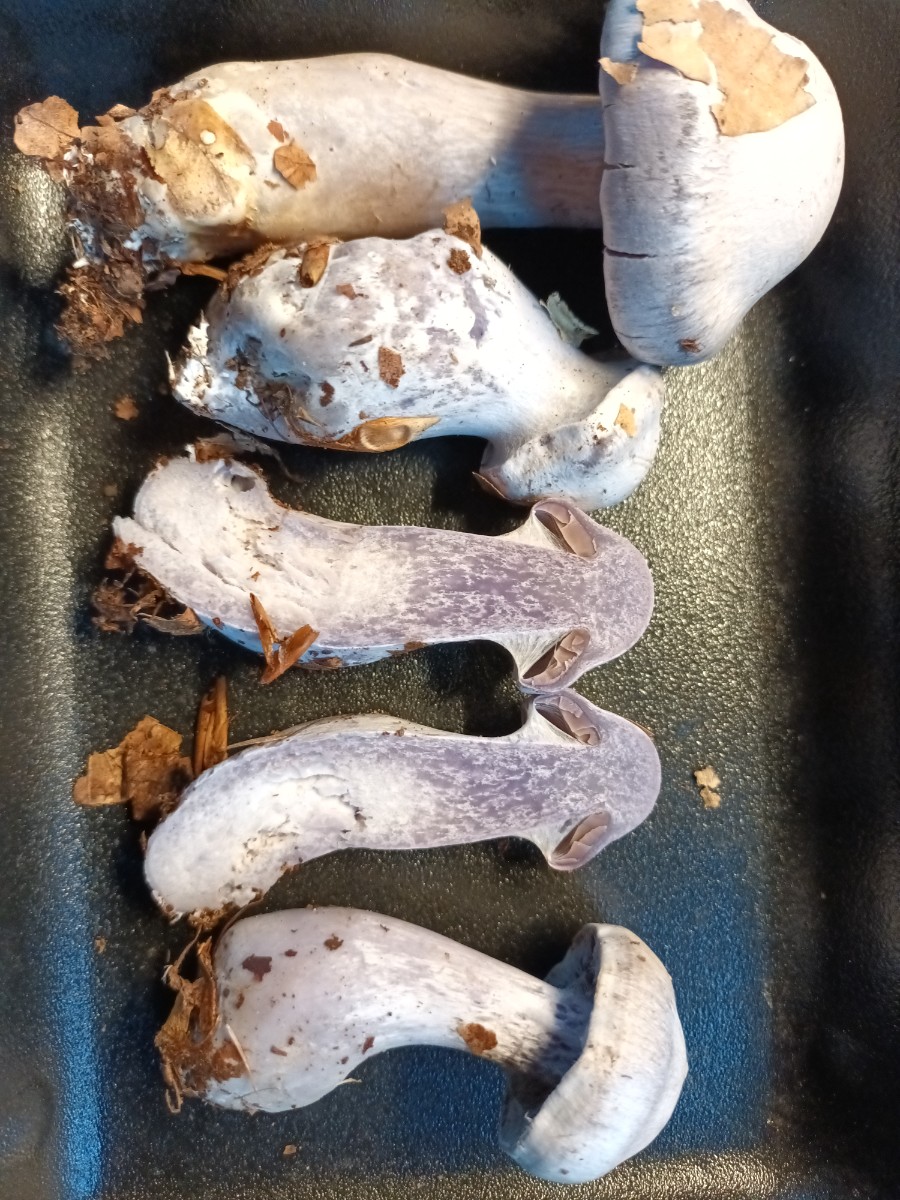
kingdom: Fungi
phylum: Basidiomycota
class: Agaricomycetes
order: Agaricales
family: Cortinariaceae
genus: Cortinarius
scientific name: Cortinarius alboviolaceus
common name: lysviolet slørhat
